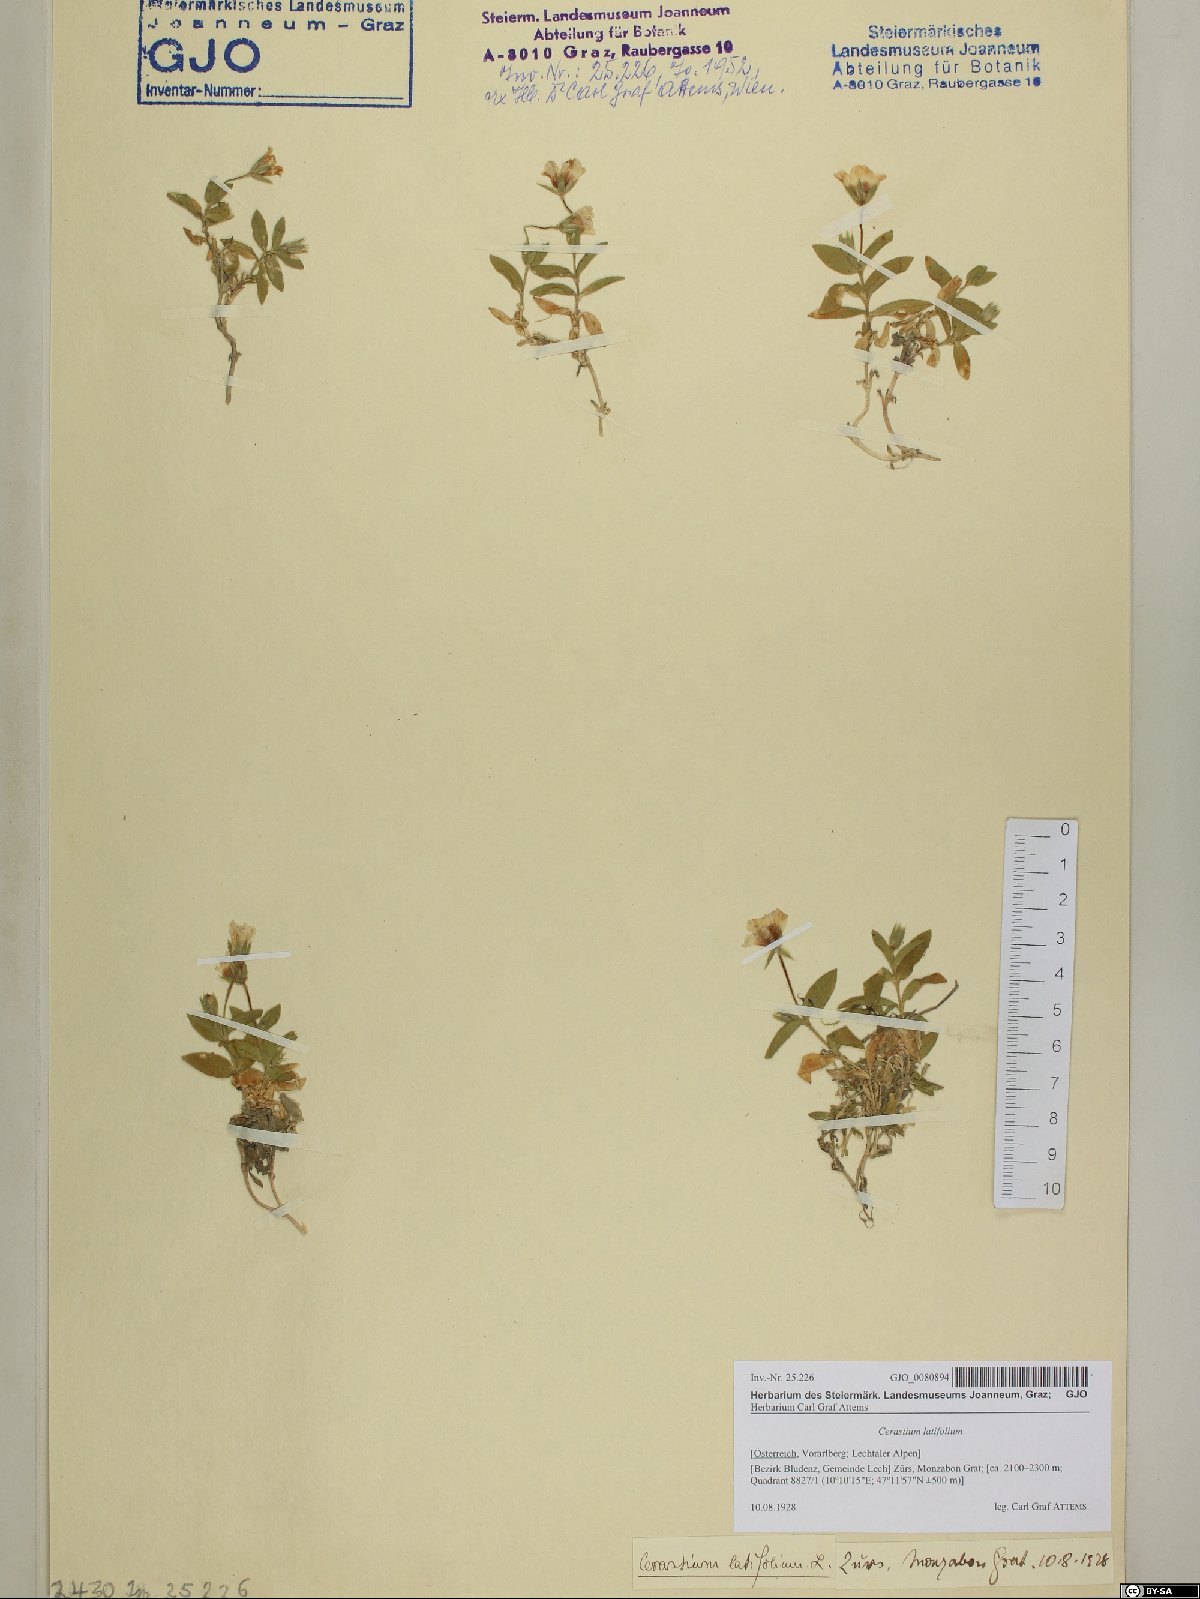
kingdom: Plantae
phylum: Tracheophyta
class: Magnoliopsida
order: Caryophyllales
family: Caryophyllaceae
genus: Cerastium
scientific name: Cerastium latifolium
